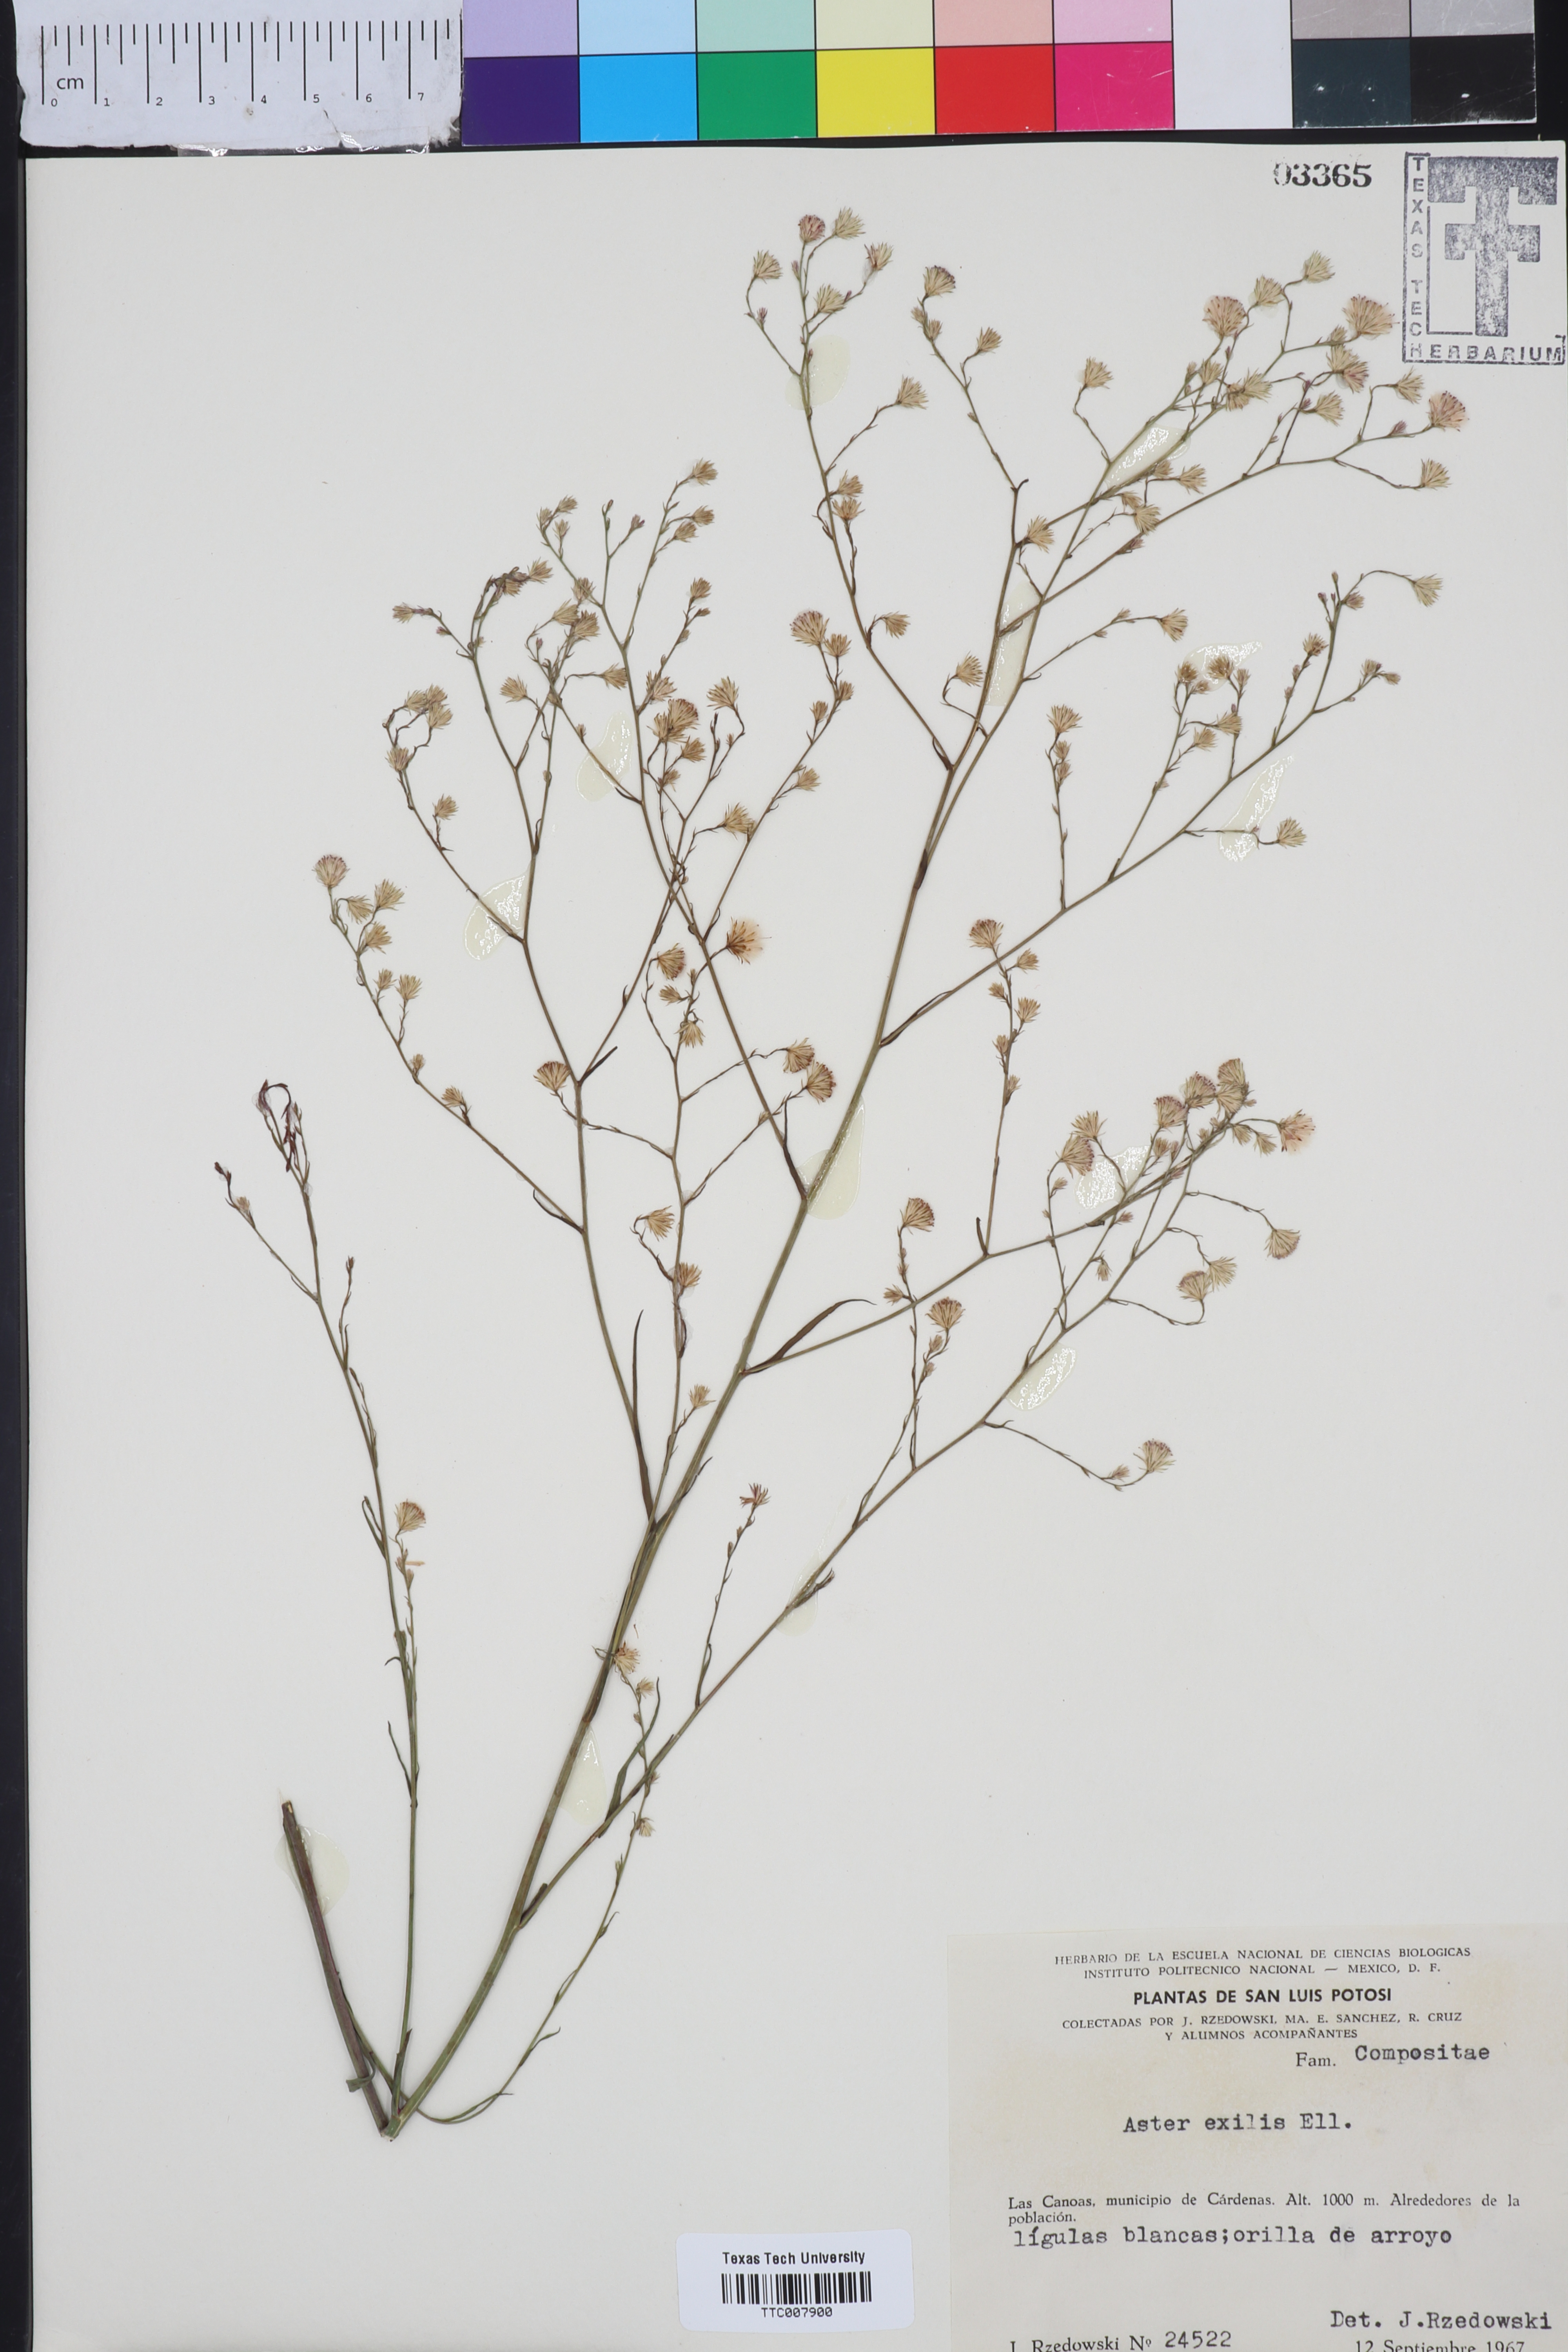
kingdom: Plantae
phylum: Tracheophyta
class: Magnoliopsida
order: Asterales
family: Asteraceae
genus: Symphyotrichum
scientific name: Symphyotrichum expansum
